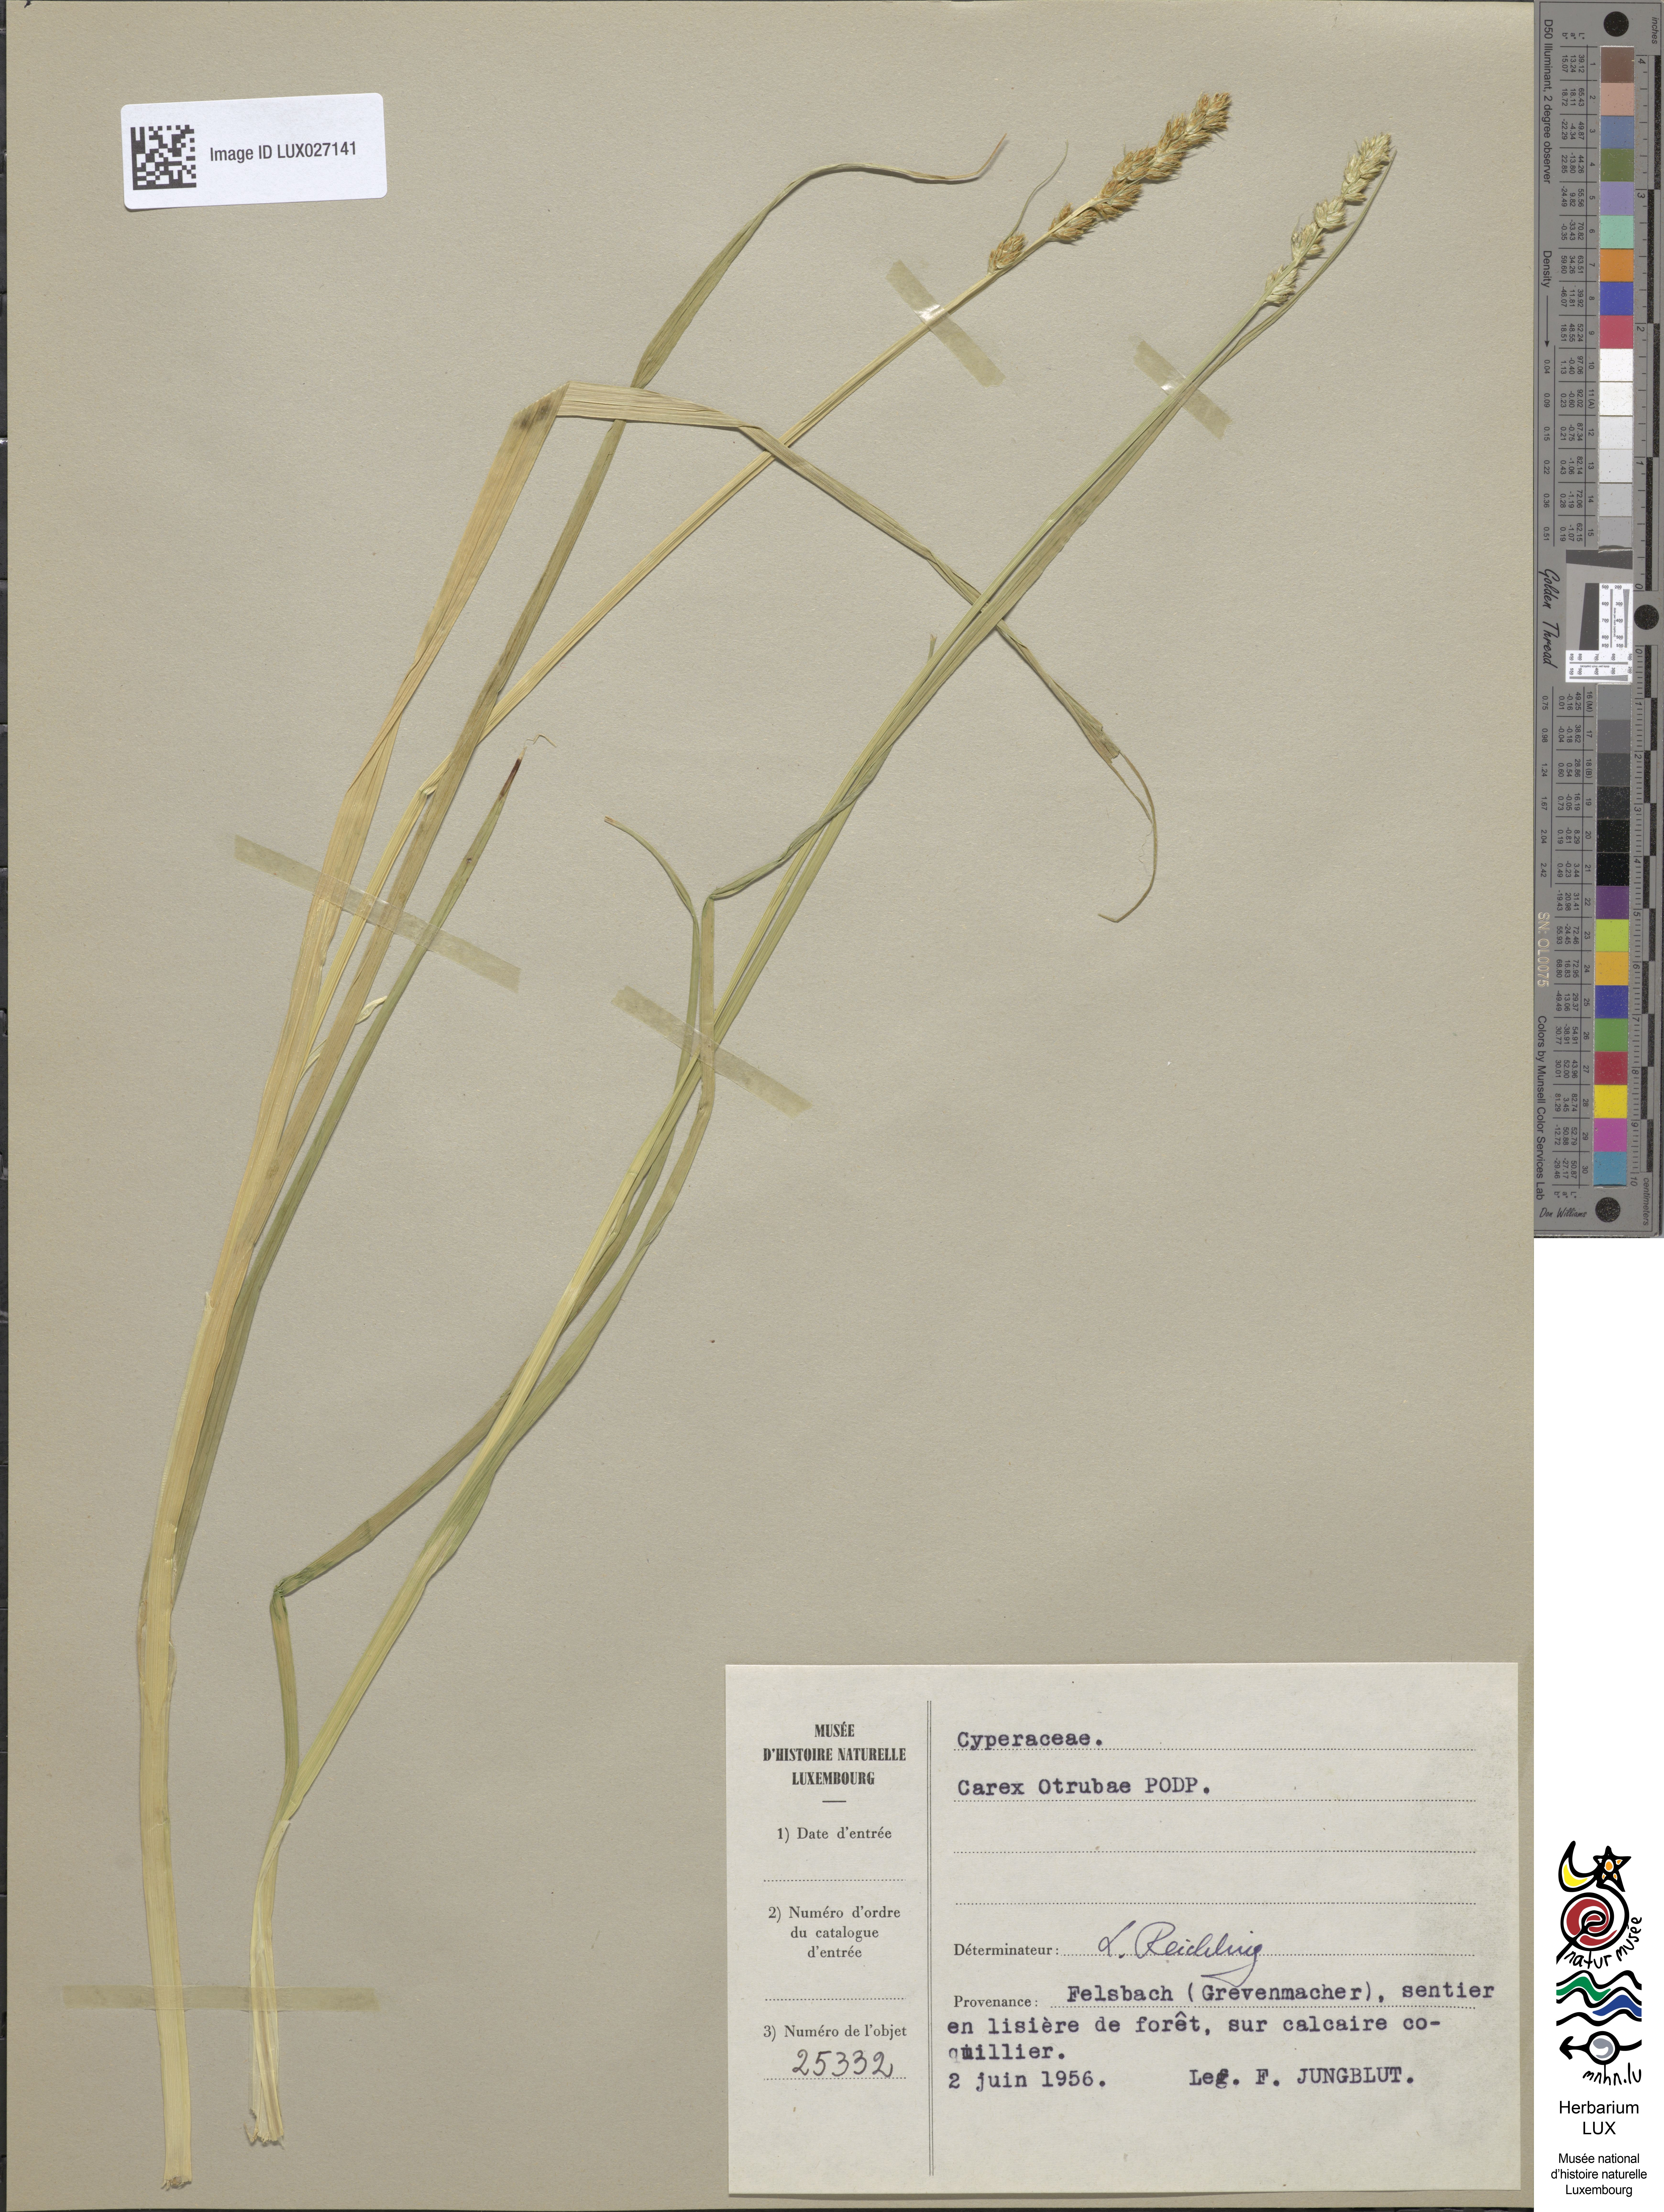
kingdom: Plantae
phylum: Tracheophyta
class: Liliopsida
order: Poales
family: Cyperaceae
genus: Carex
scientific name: Carex otrubae
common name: False fox-sedge
